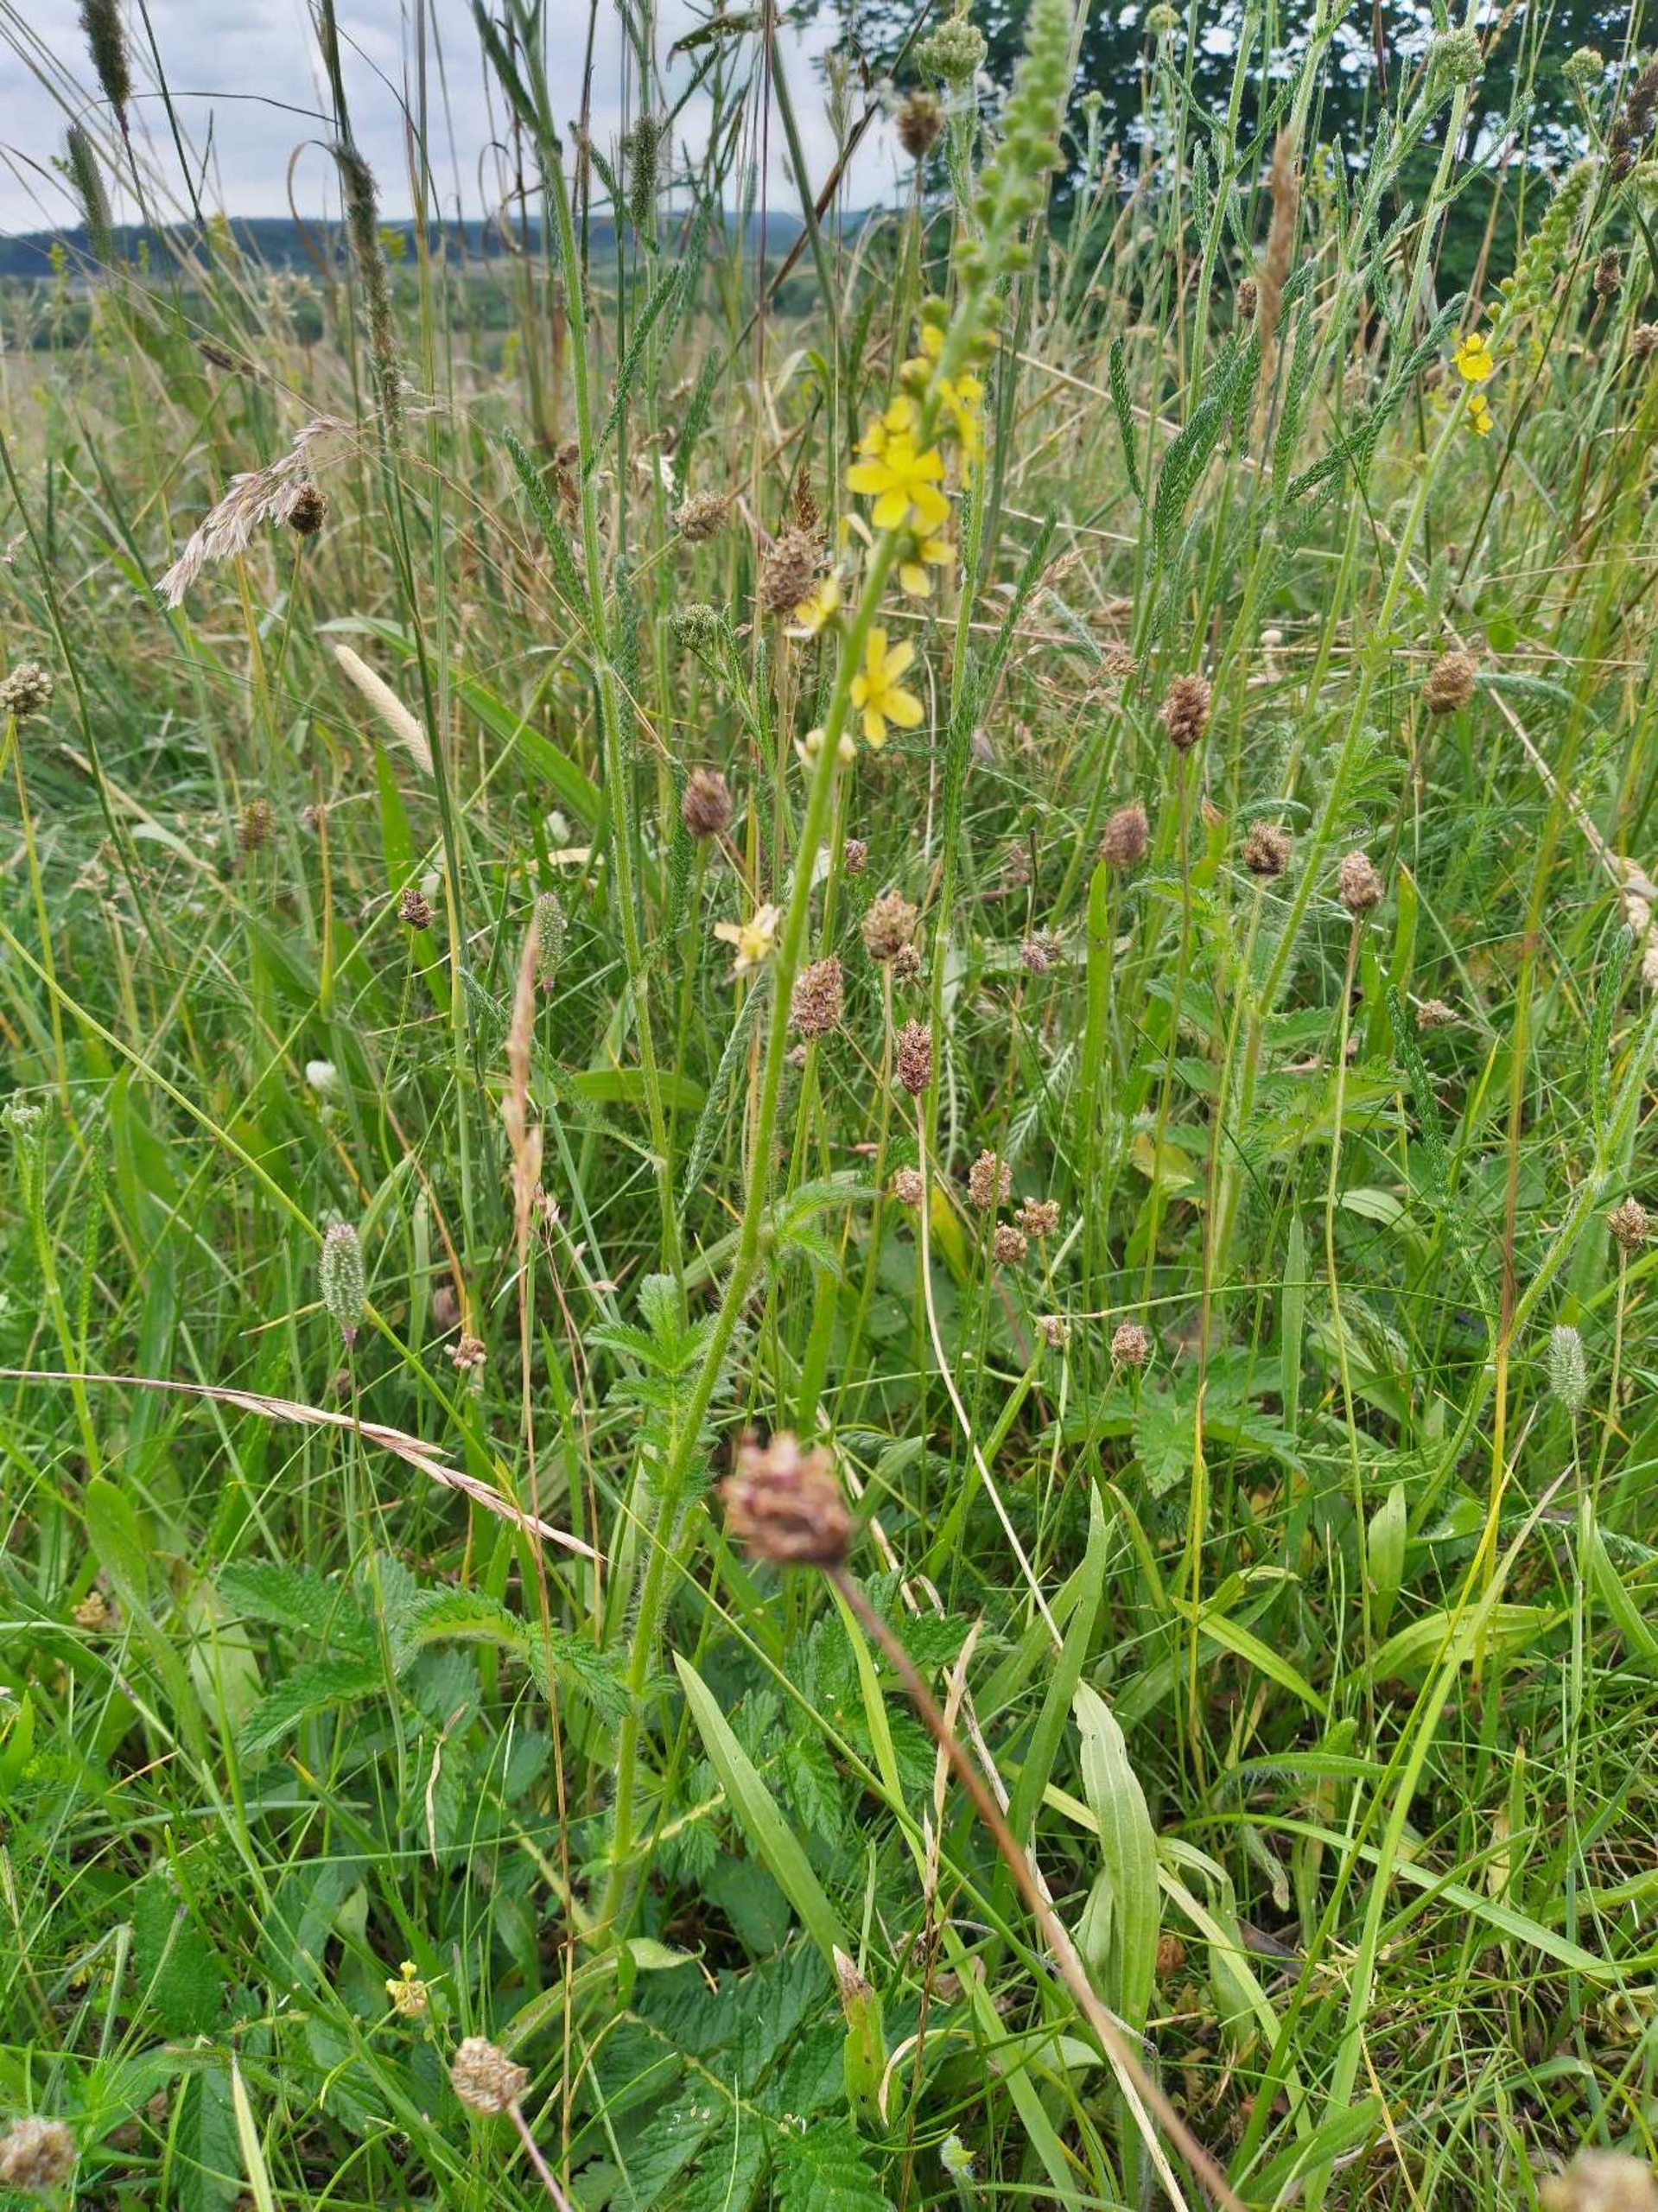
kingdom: Plantae
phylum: Tracheophyta
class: Magnoliopsida
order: Rosales
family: Rosaceae
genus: Agrimonia
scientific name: Agrimonia eupatoria
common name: Almindelig agermåne
